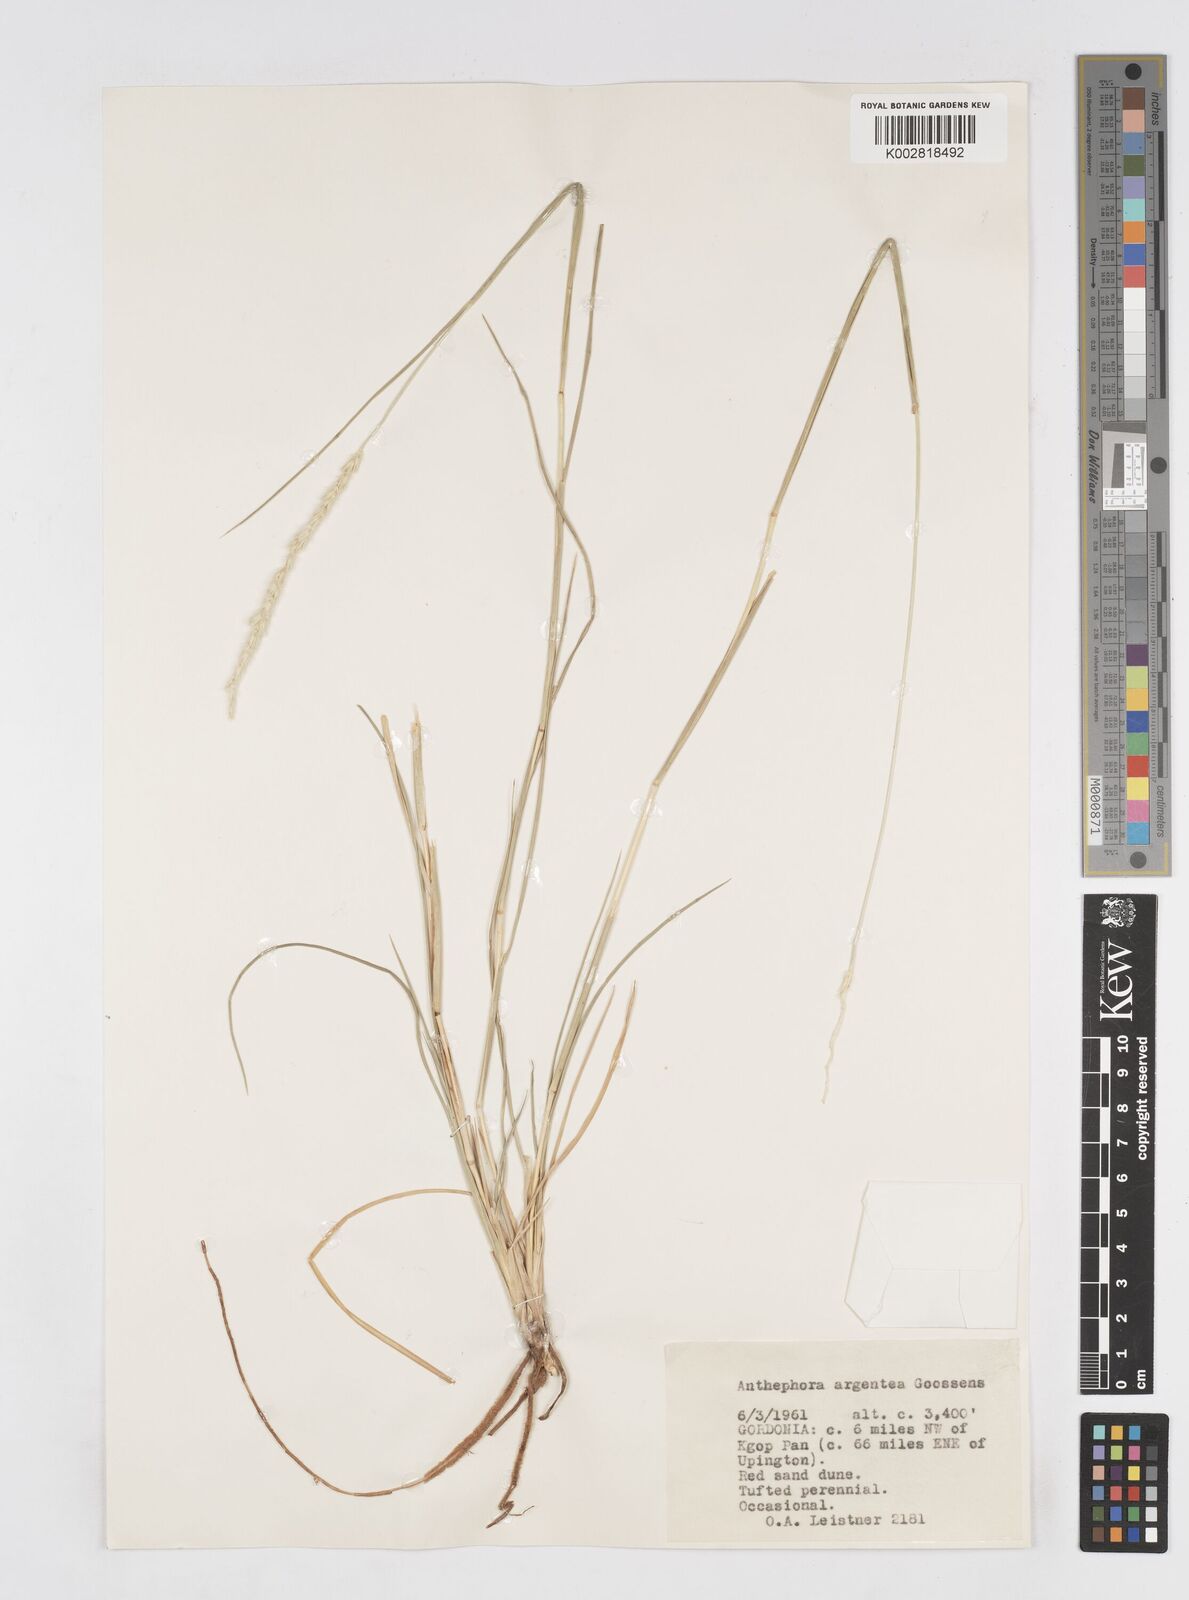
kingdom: Plantae
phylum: Tracheophyta
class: Liliopsida
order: Poales
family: Poaceae
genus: Anthephora
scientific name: Anthephora argentea
